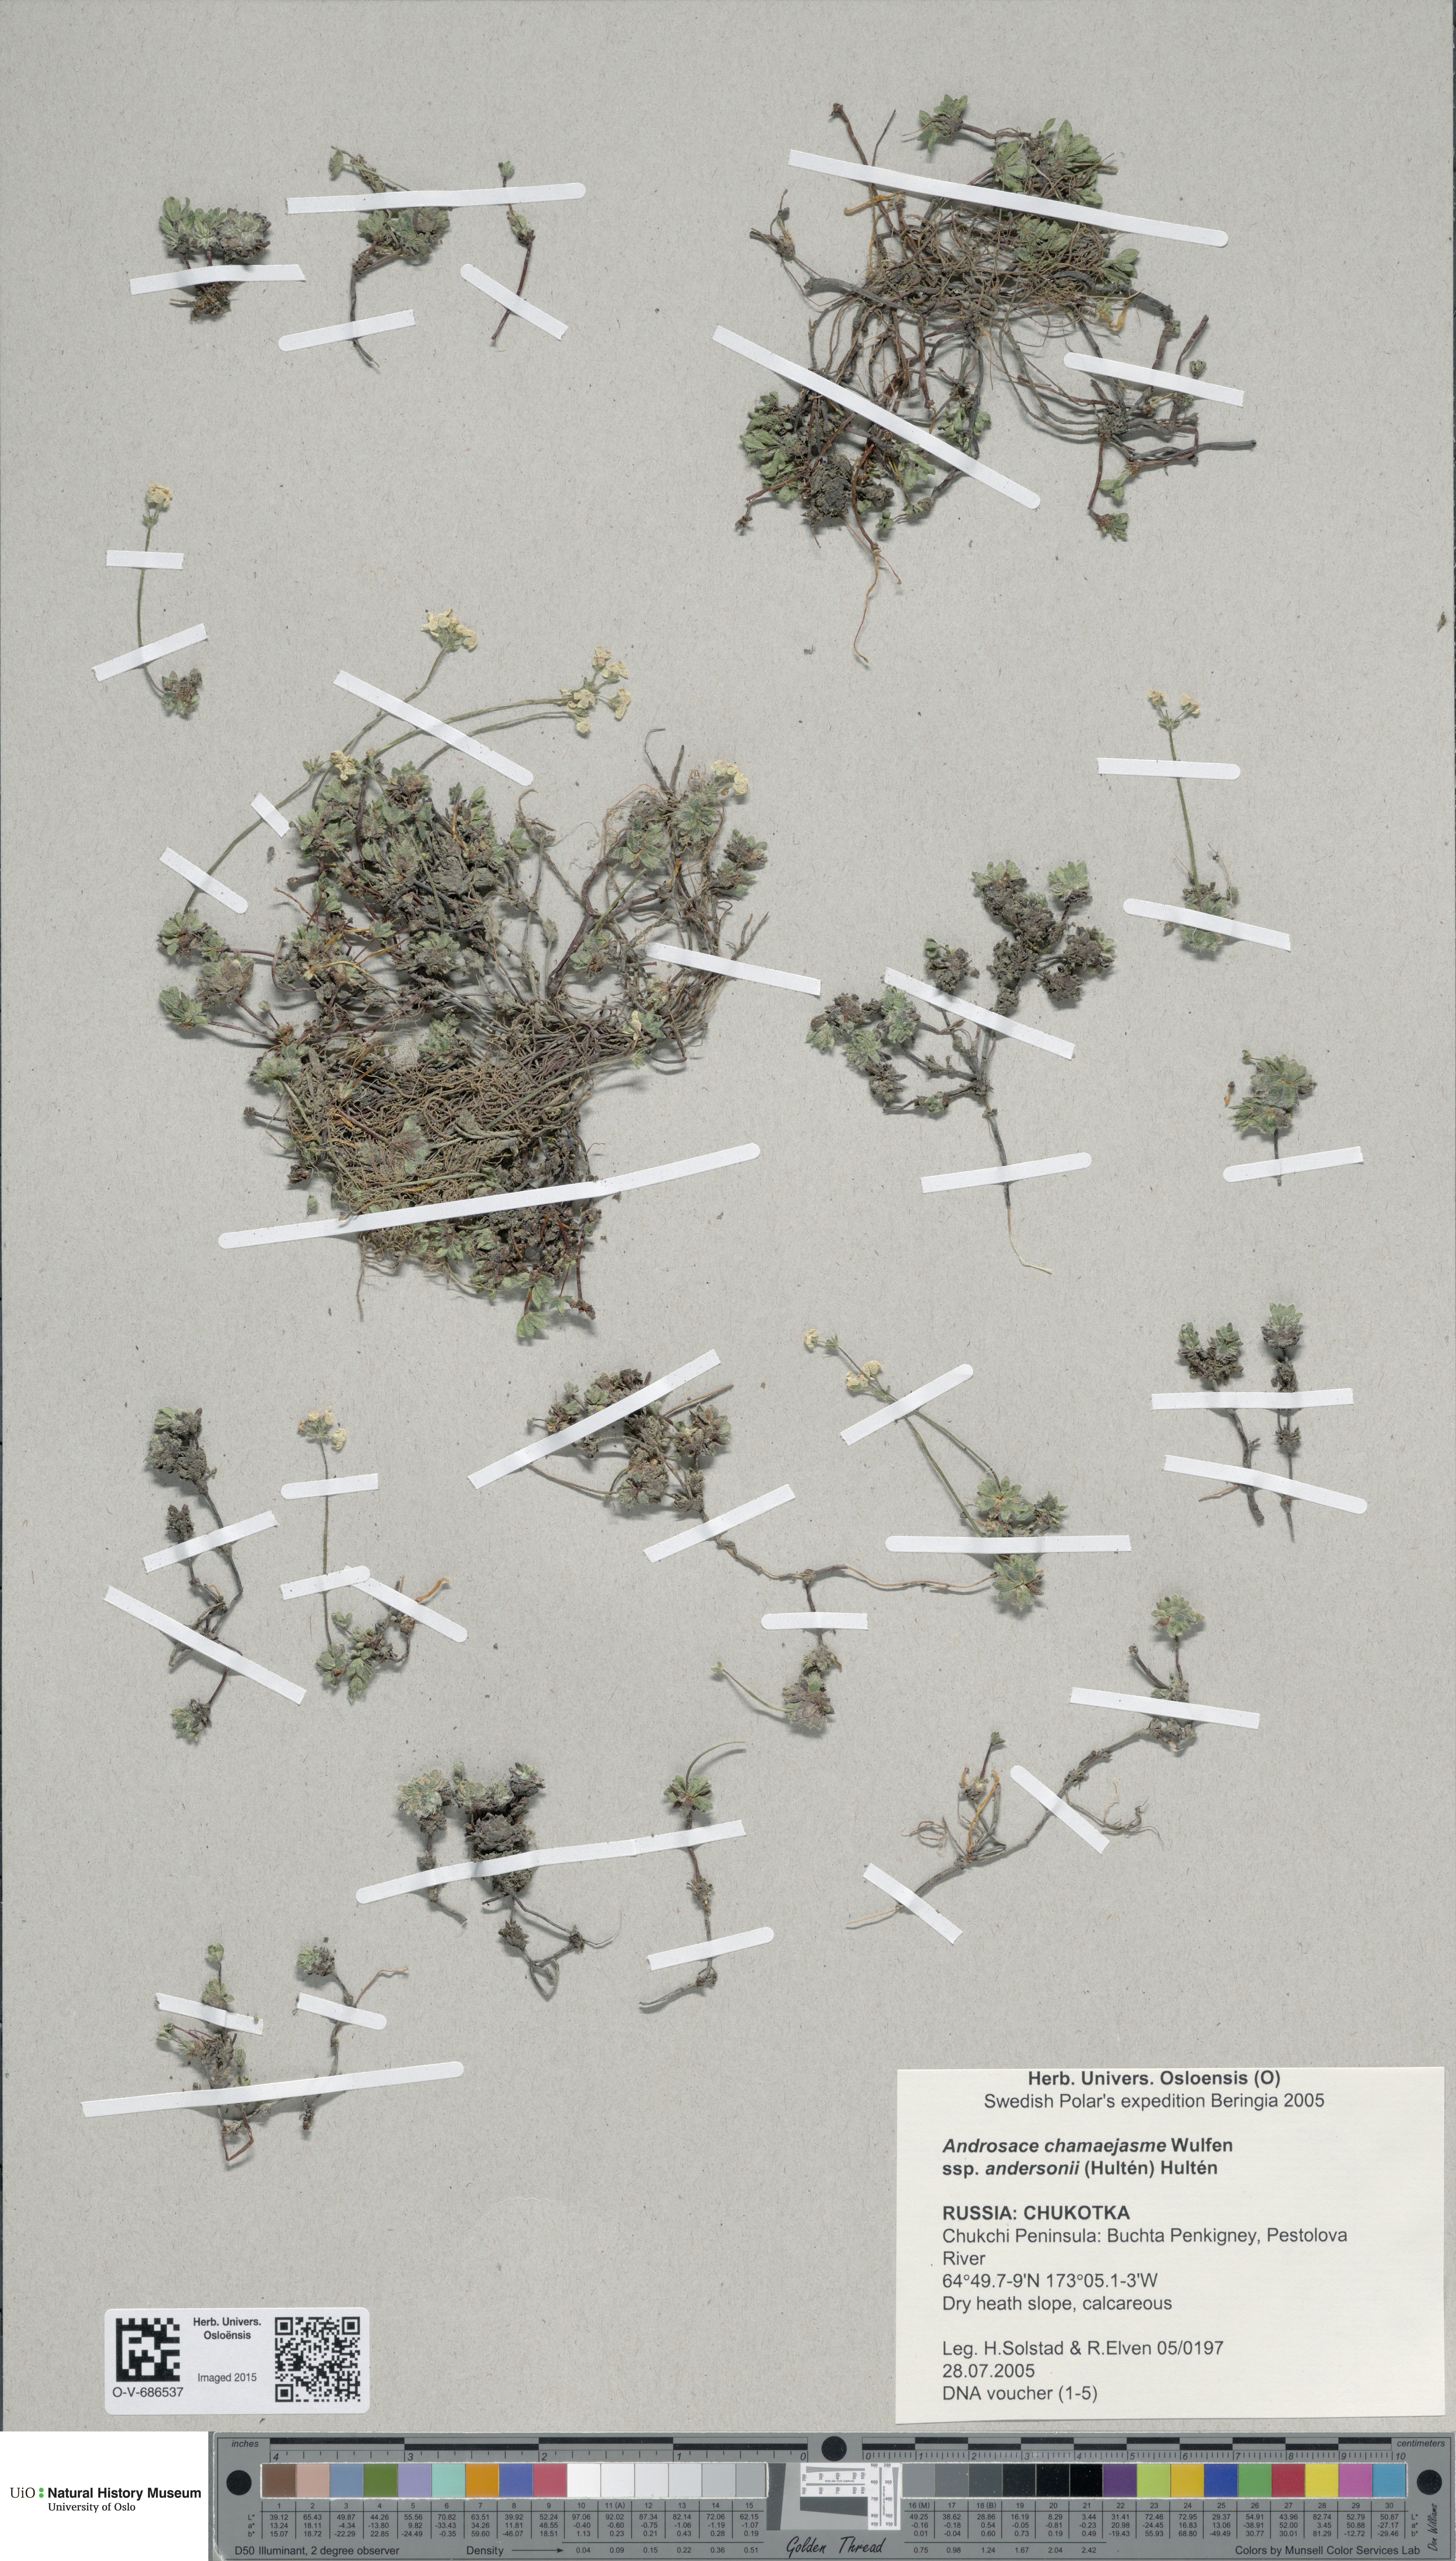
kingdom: Plantae
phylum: Tracheophyta
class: Magnoliopsida
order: Ericales
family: Primulaceae
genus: Androsace
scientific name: Androsace chamaejasme
